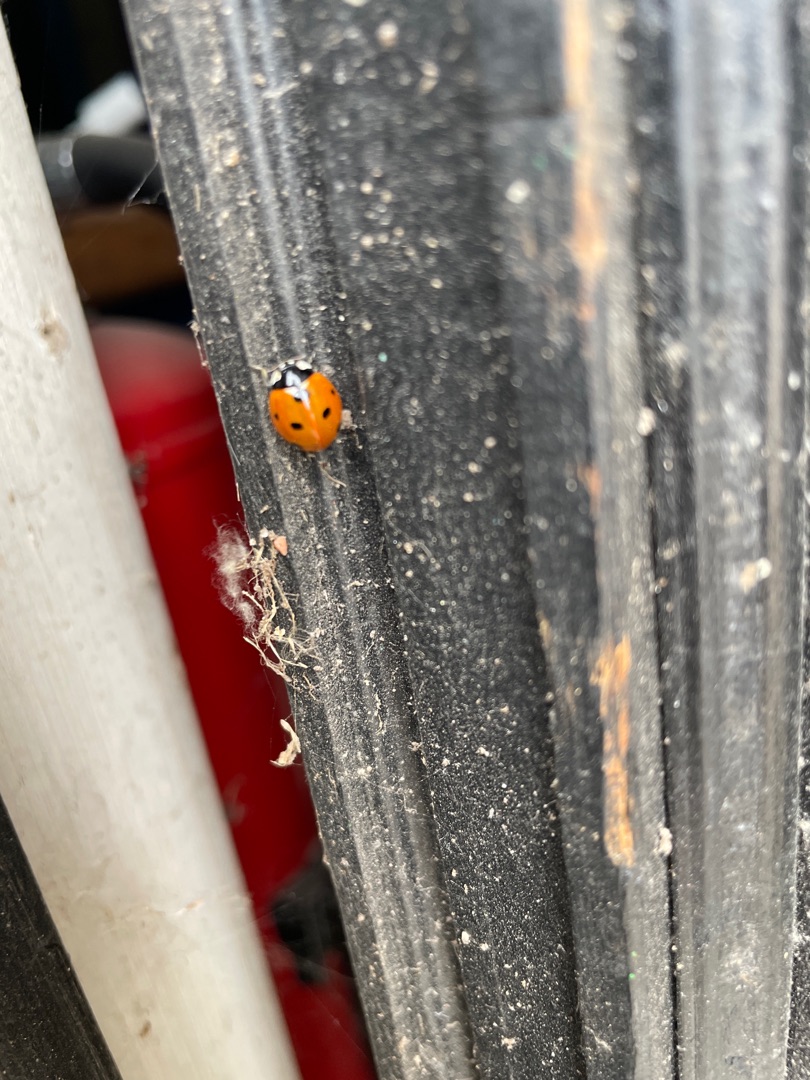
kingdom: Animalia
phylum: Arthropoda
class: Insecta
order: Coleoptera
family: Coccinellidae
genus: Coccinella
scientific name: Coccinella septempunctata
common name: Syvplettet mariehøne
